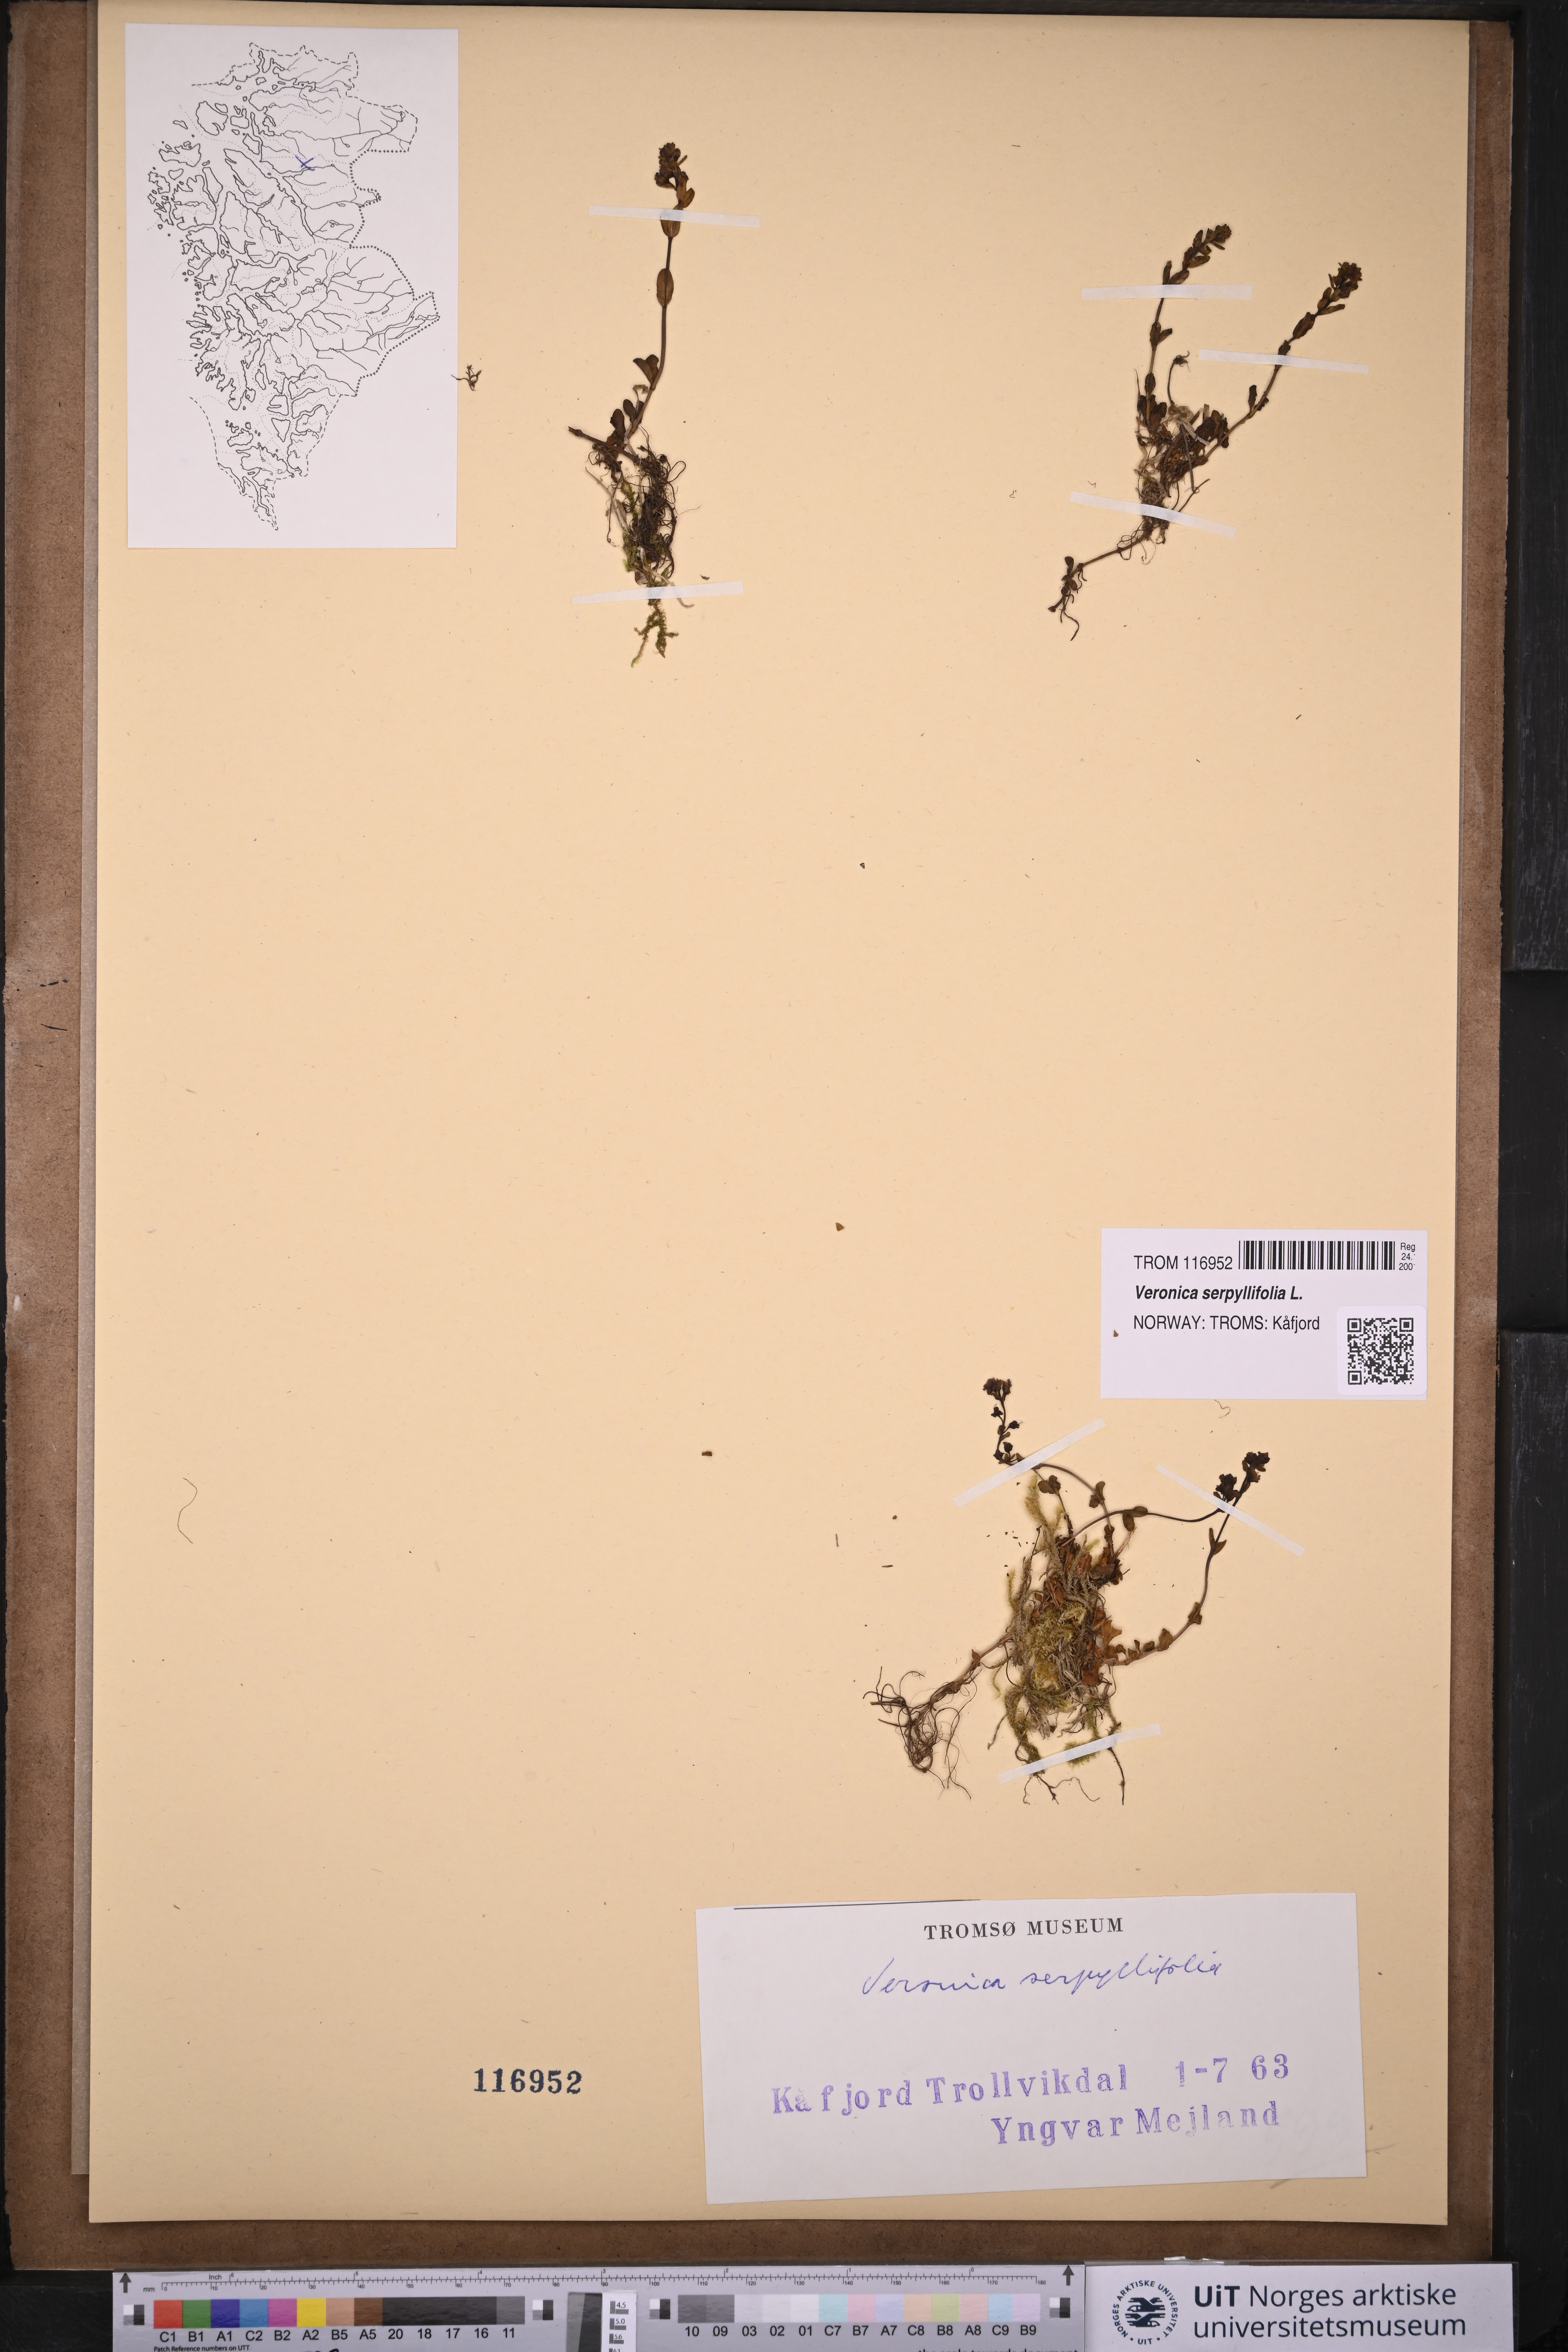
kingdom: Plantae
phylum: Tracheophyta
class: Magnoliopsida
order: Lamiales
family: Plantaginaceae
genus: Veronica
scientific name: Veronica serpyllifolia
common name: Thyme-leaved speedwell
